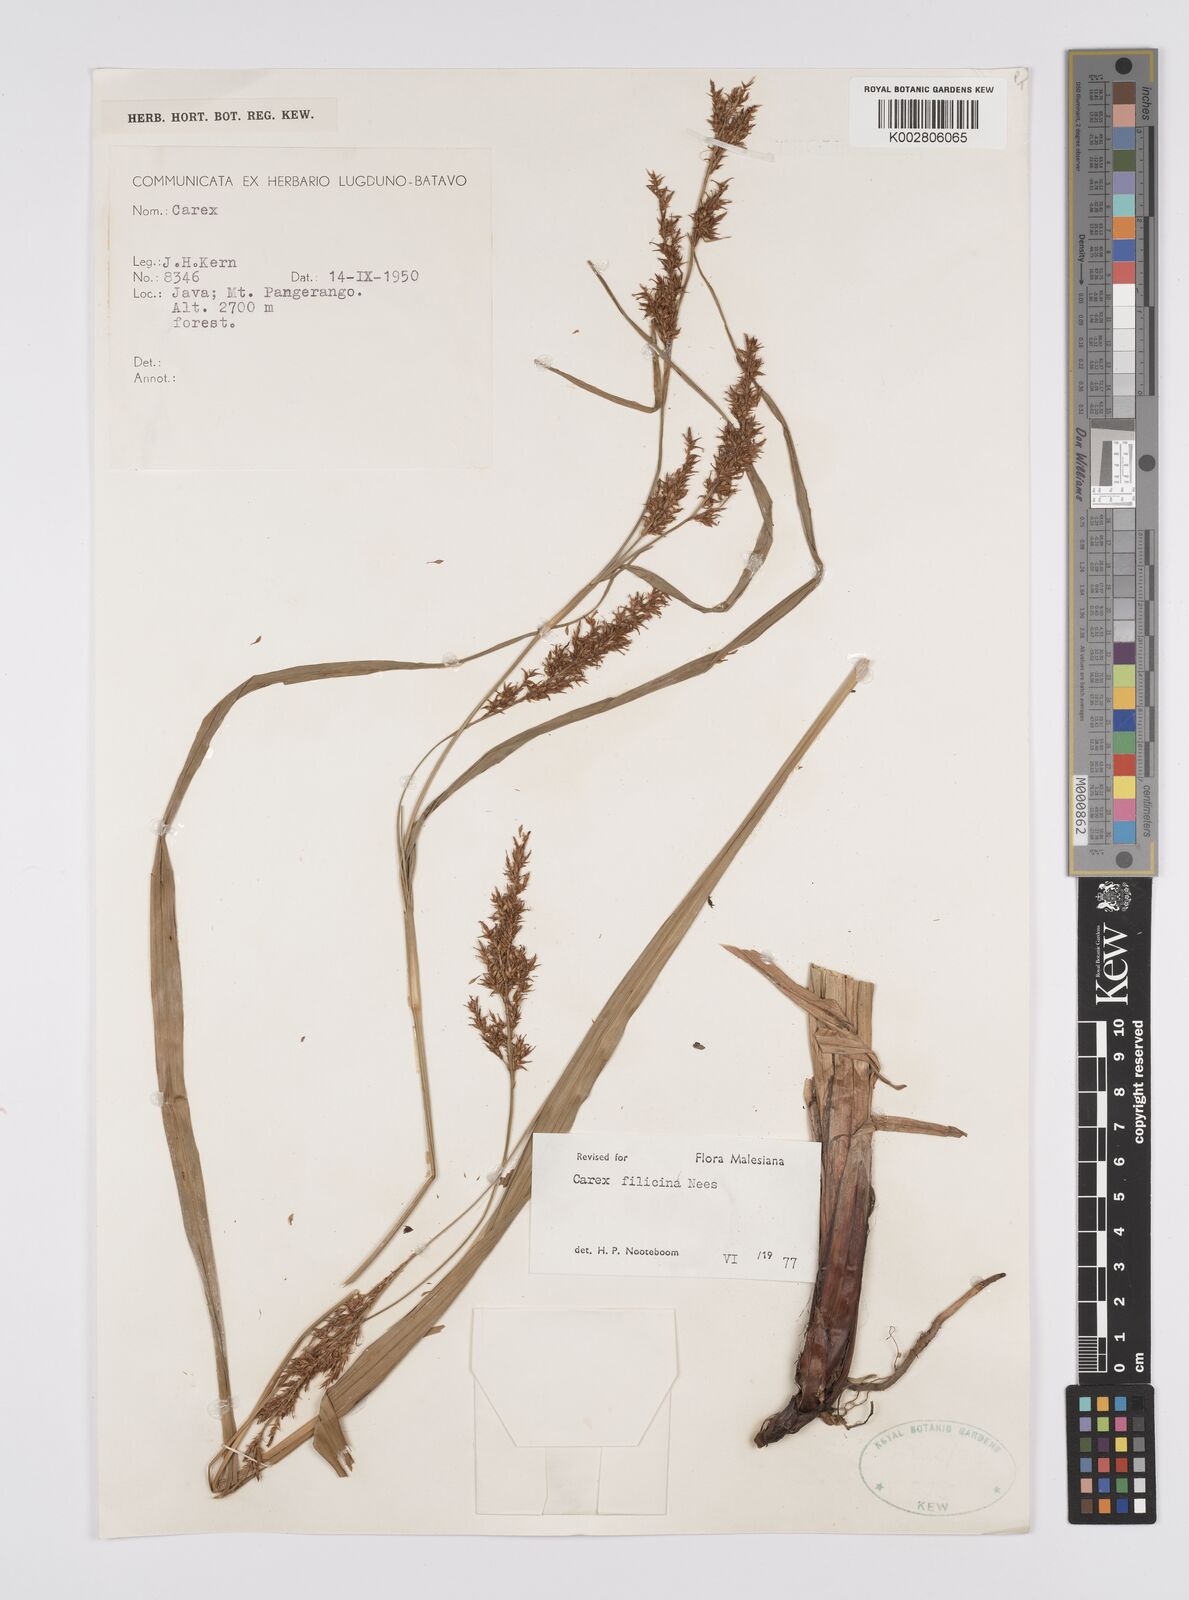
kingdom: Plantae
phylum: Tracheophyta
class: Liliopsida
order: Poales
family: Cyperaceae
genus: Carex
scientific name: Carex filicina
